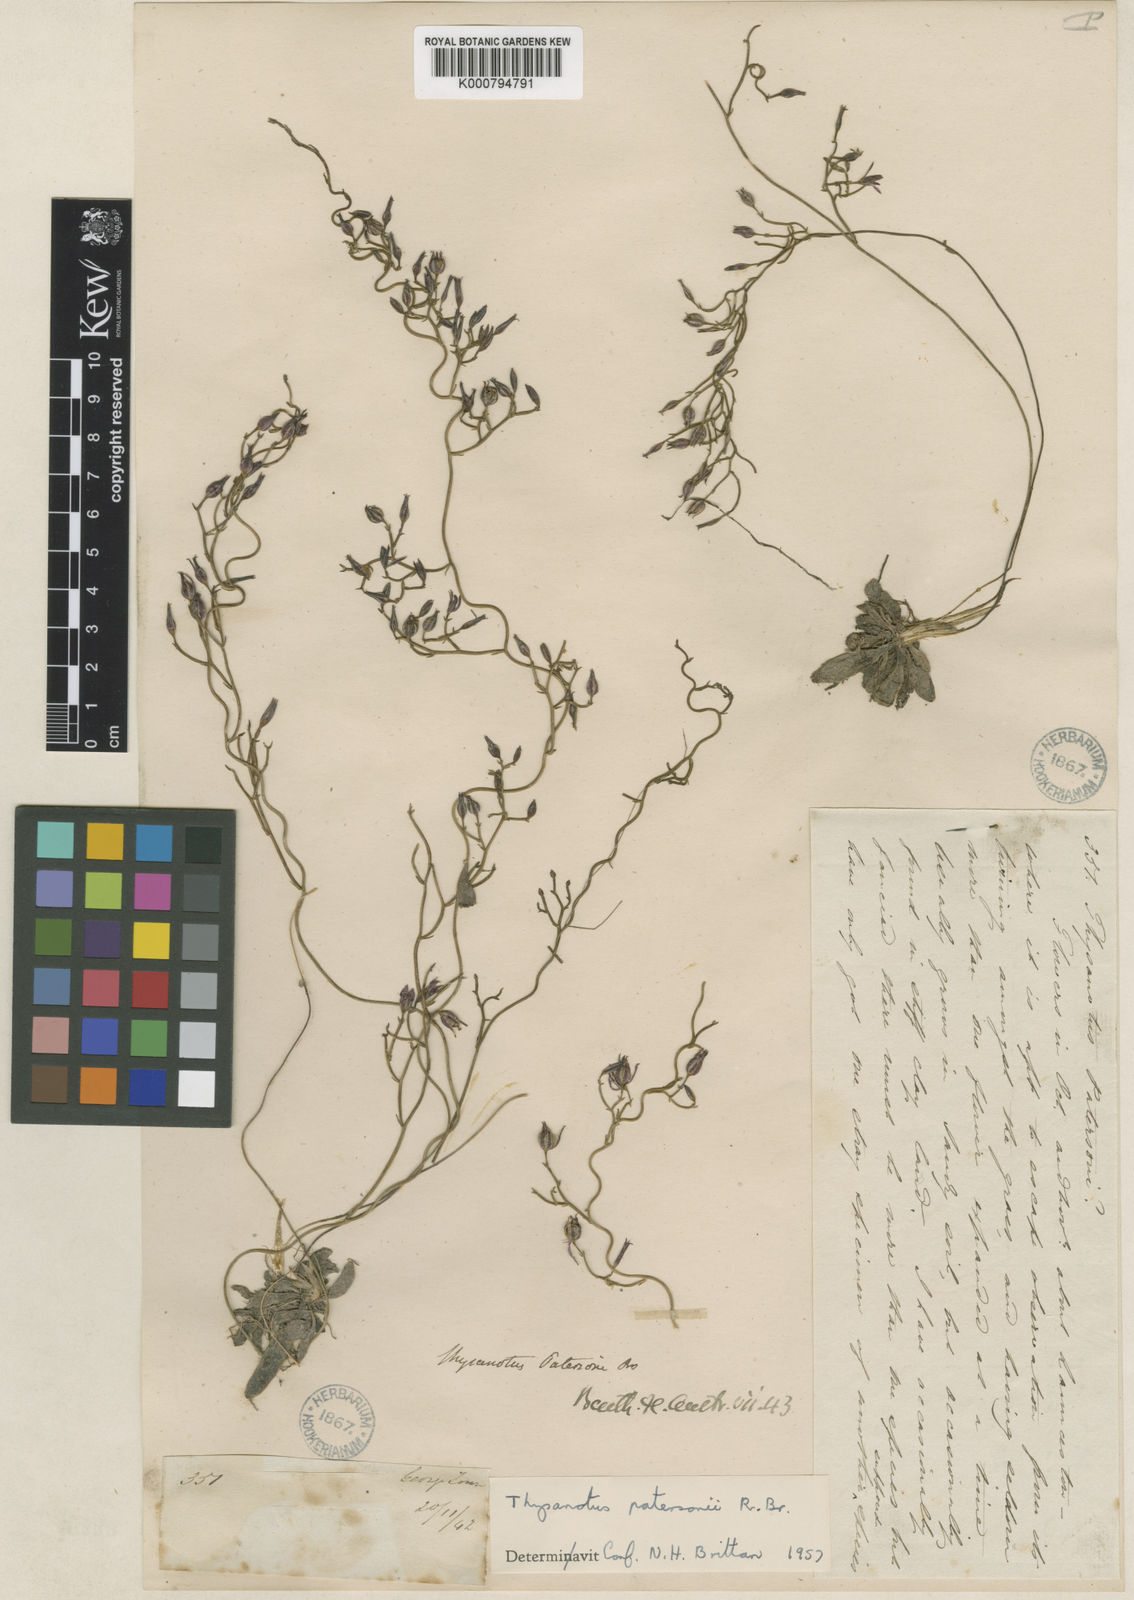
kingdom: Plantae
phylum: Tracheophyta
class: Liliopsida
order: Asparagales
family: Asparagaceae
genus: Thysanotus
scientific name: Thysanotus patersonii
